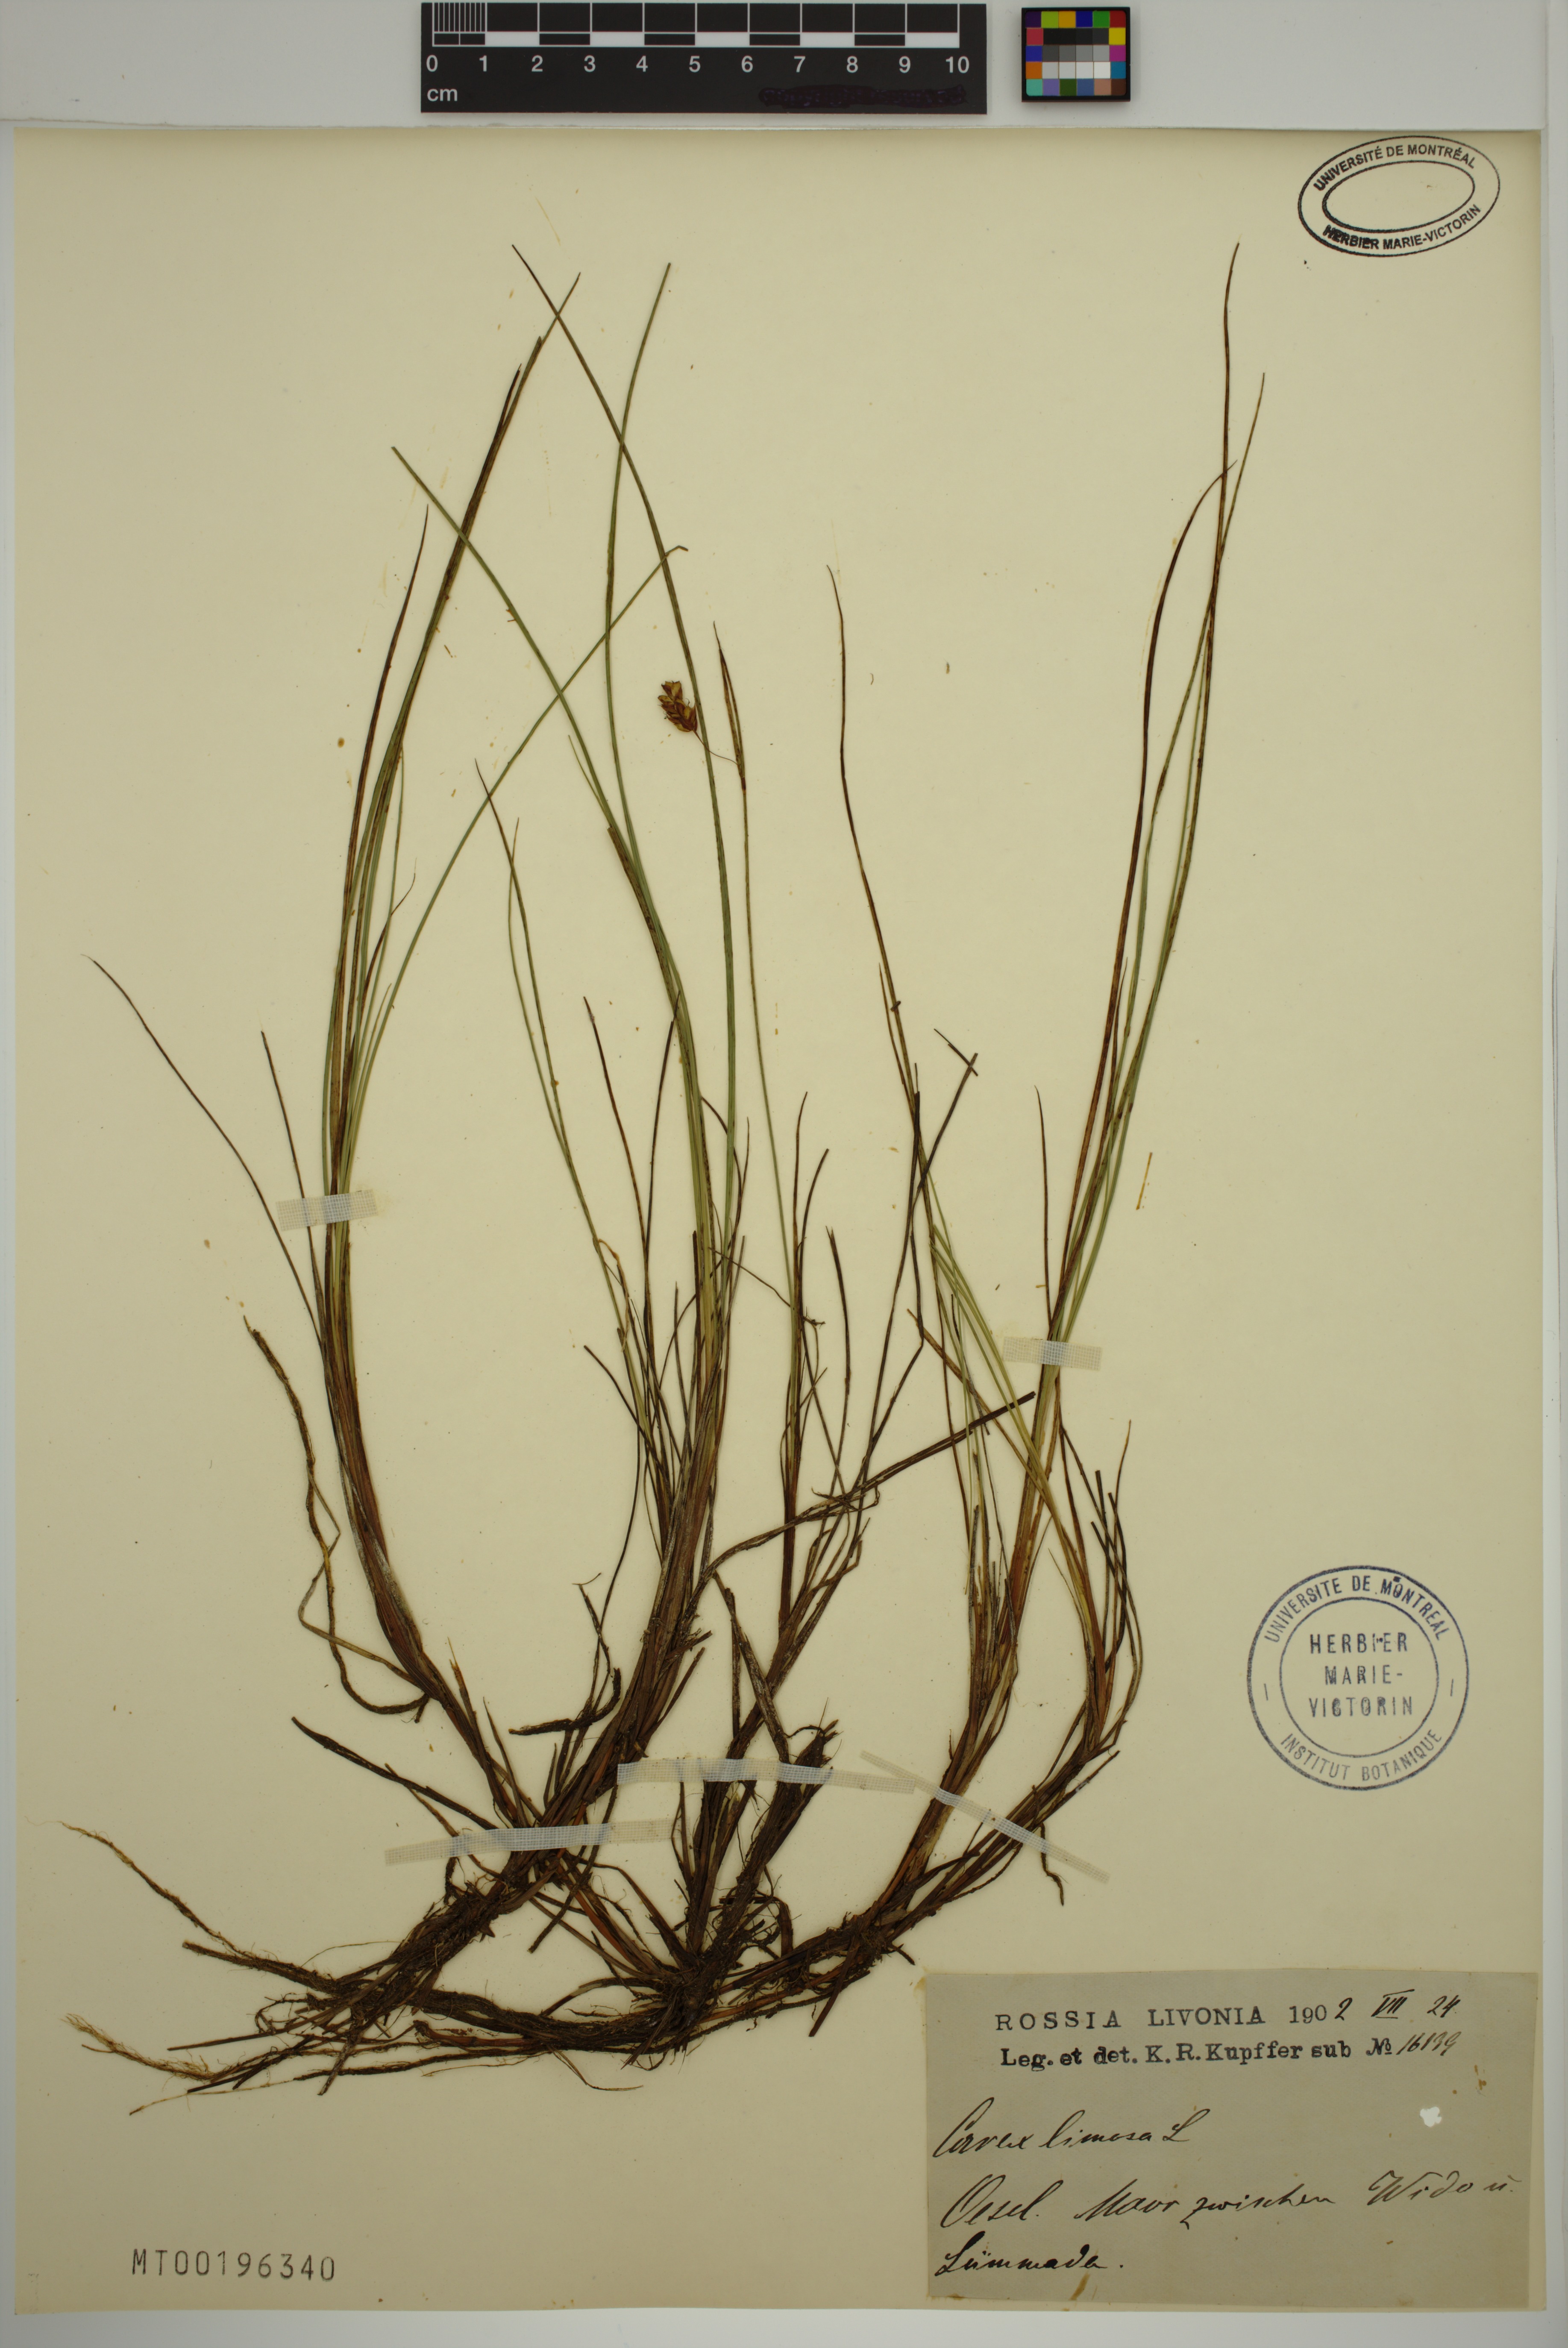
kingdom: Plantae
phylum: Tracheophyta
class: Liliopsida
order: Poales
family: Cyperaceae
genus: Carex
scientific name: Carex limosa
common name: Bog sedge
